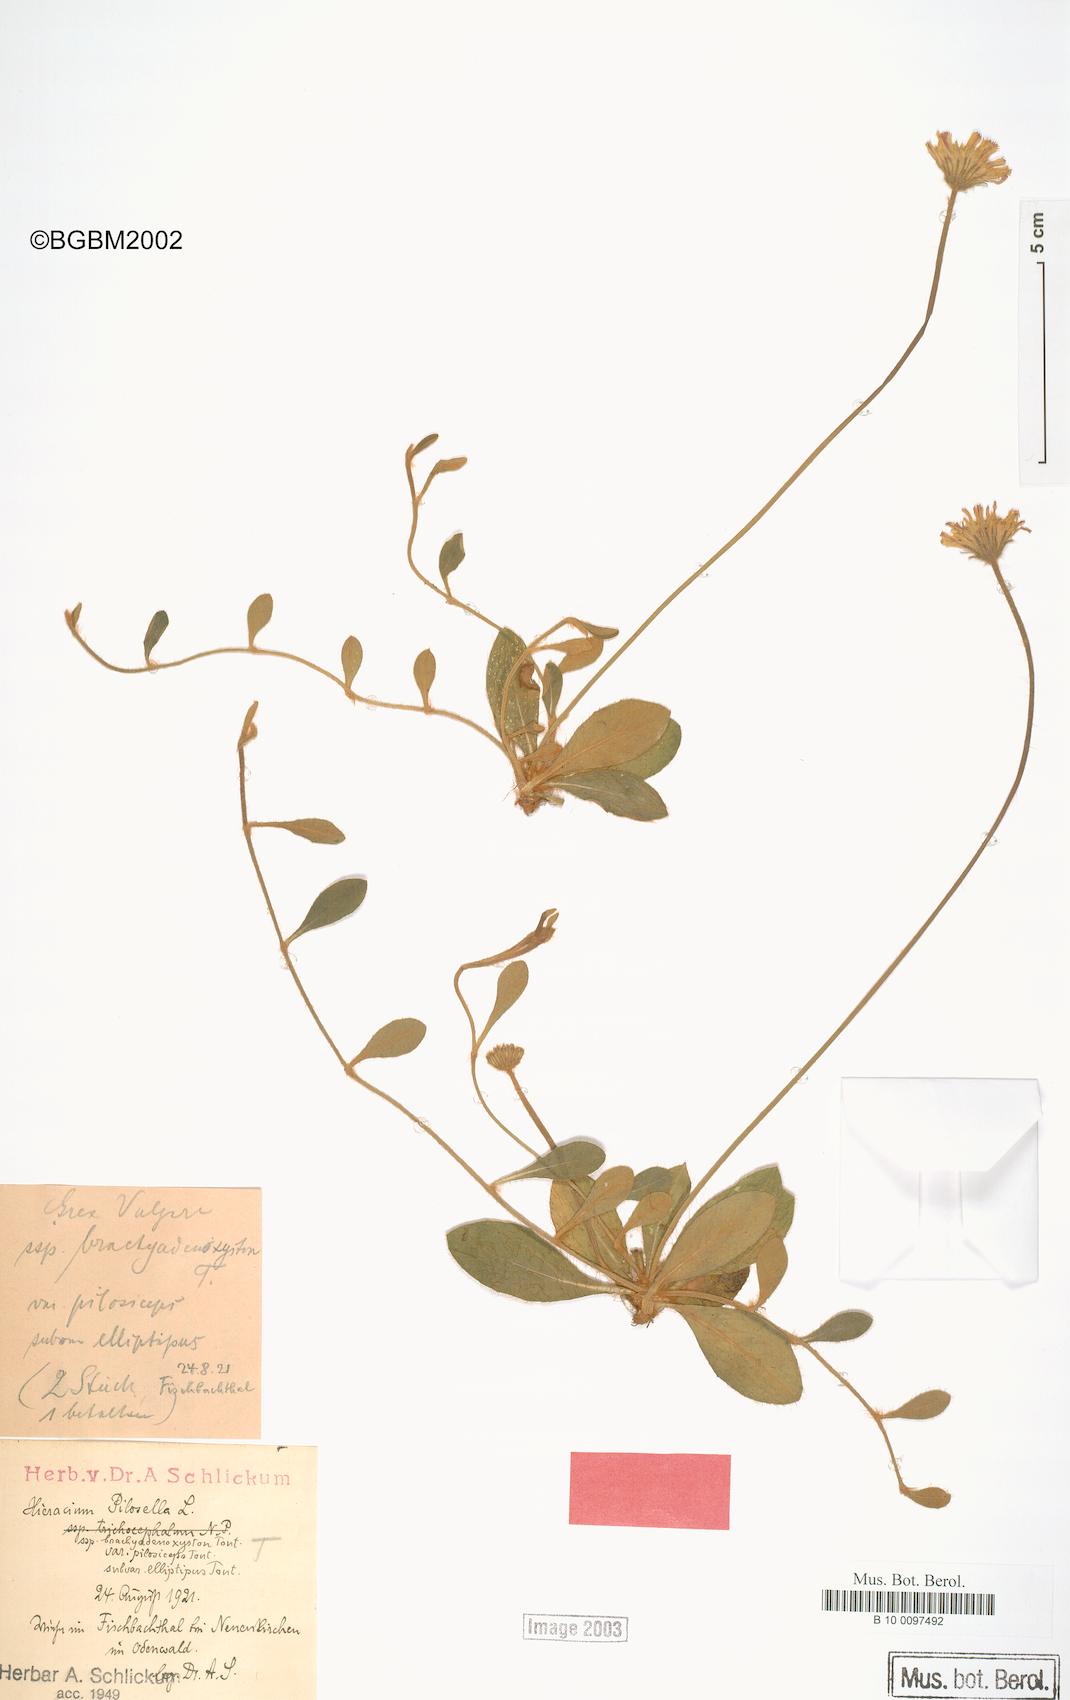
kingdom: Plantae
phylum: Tracheophyta
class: Magnoliopsida
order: Asterales
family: Asteraceae
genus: Pilosella
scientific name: Pilosella officinarum
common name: Mouse-ear hawkweed
